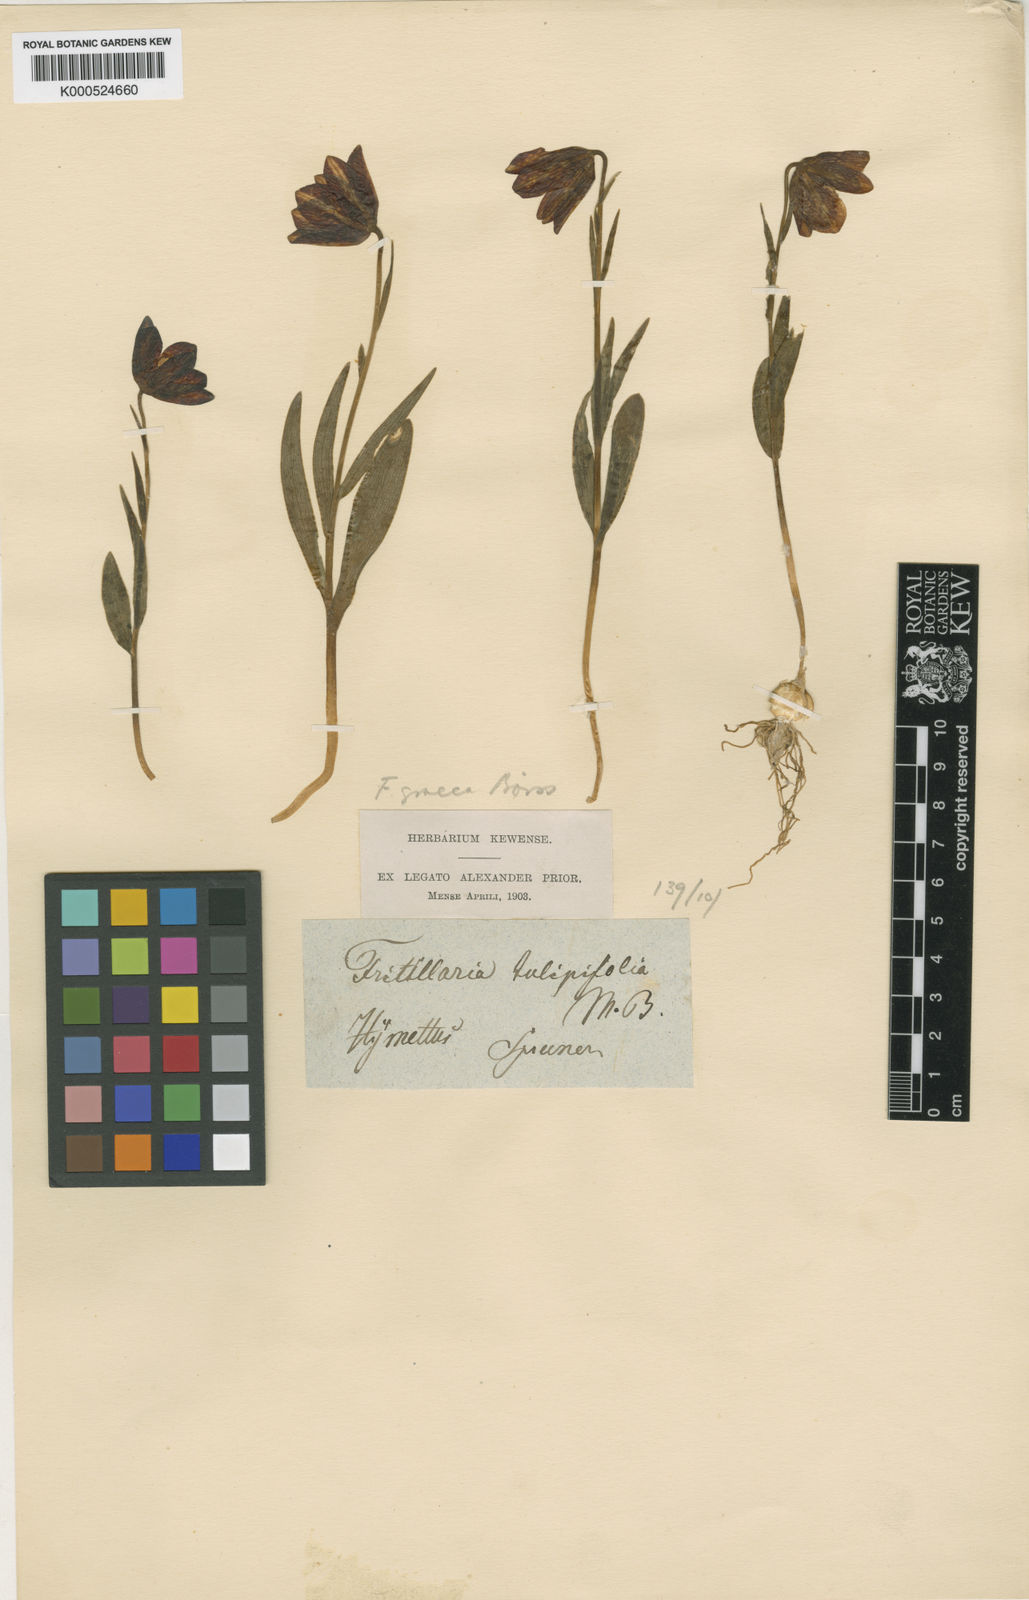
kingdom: Plantae
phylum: Tracheophyta
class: Liliopsida
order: Liliales
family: Liliaceae
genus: Fritillaria
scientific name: Fritillaria graeca
